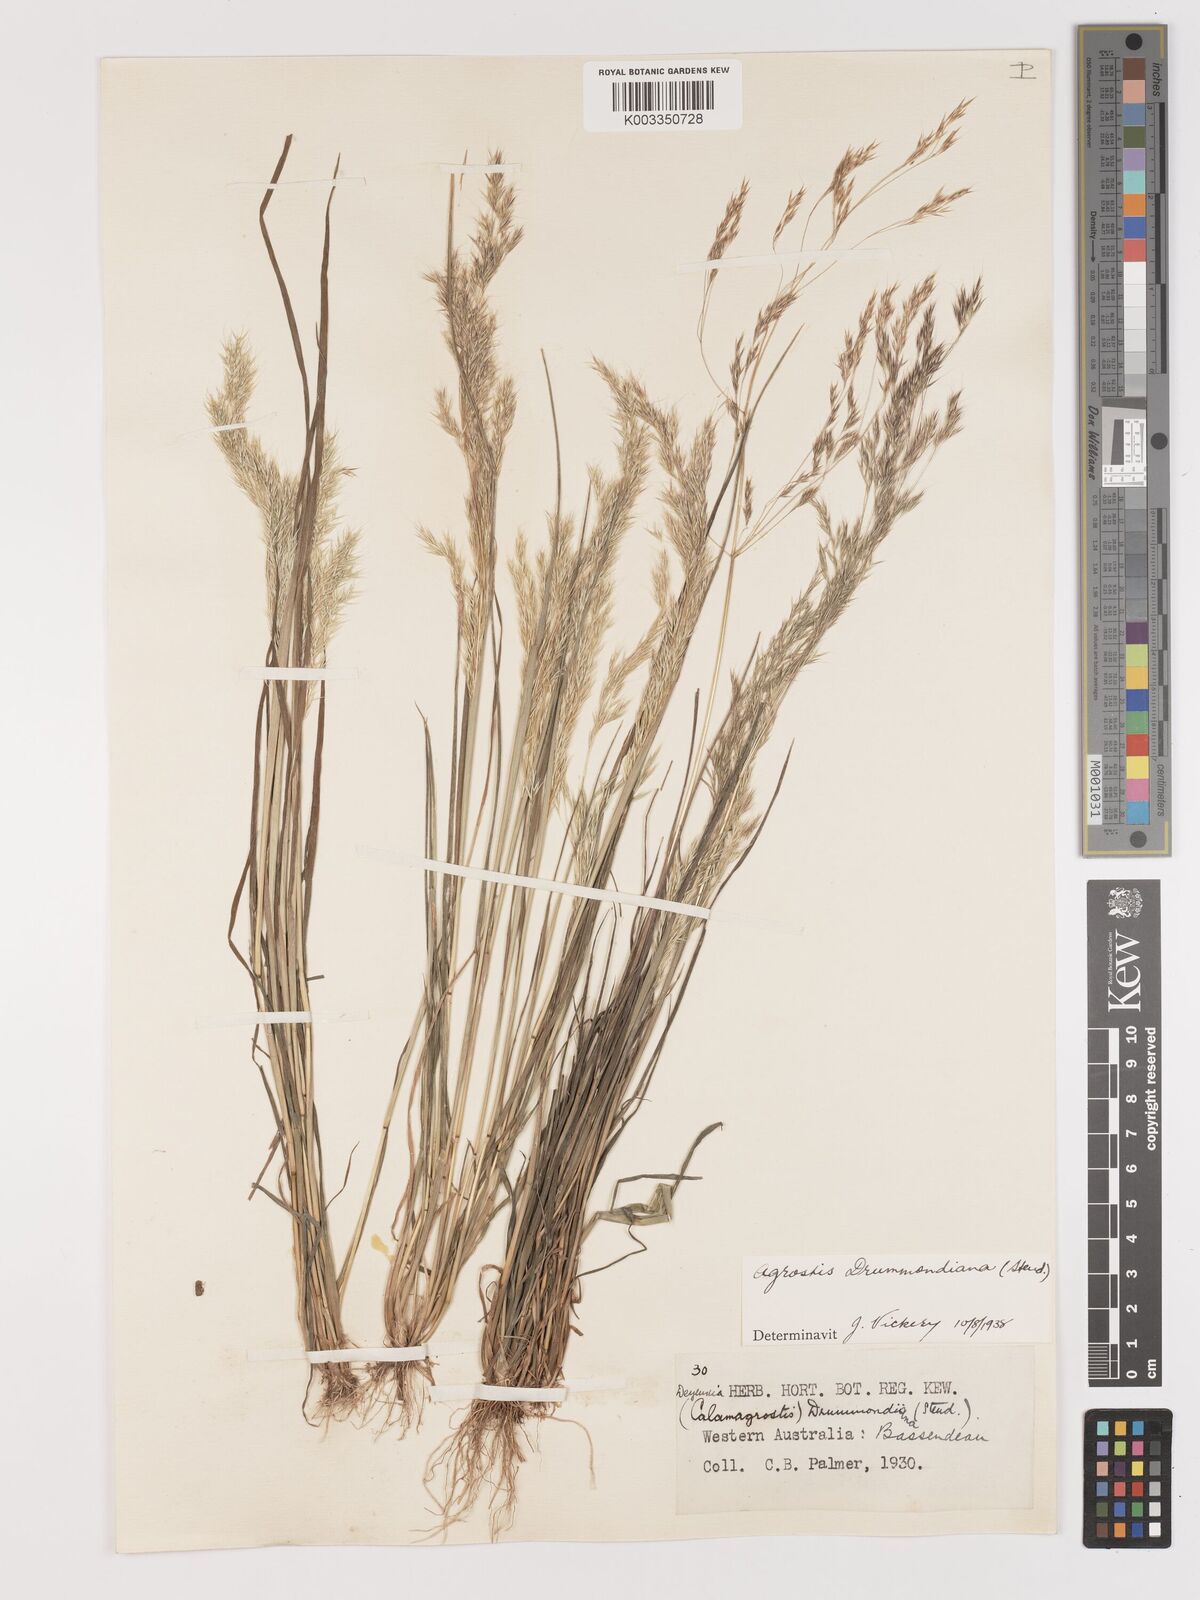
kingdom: Plantae
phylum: Tracheophyta
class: Liliopsida
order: Poales
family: Poaceae
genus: Lachnagrostis
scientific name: Lachnagrostis drummondiana
